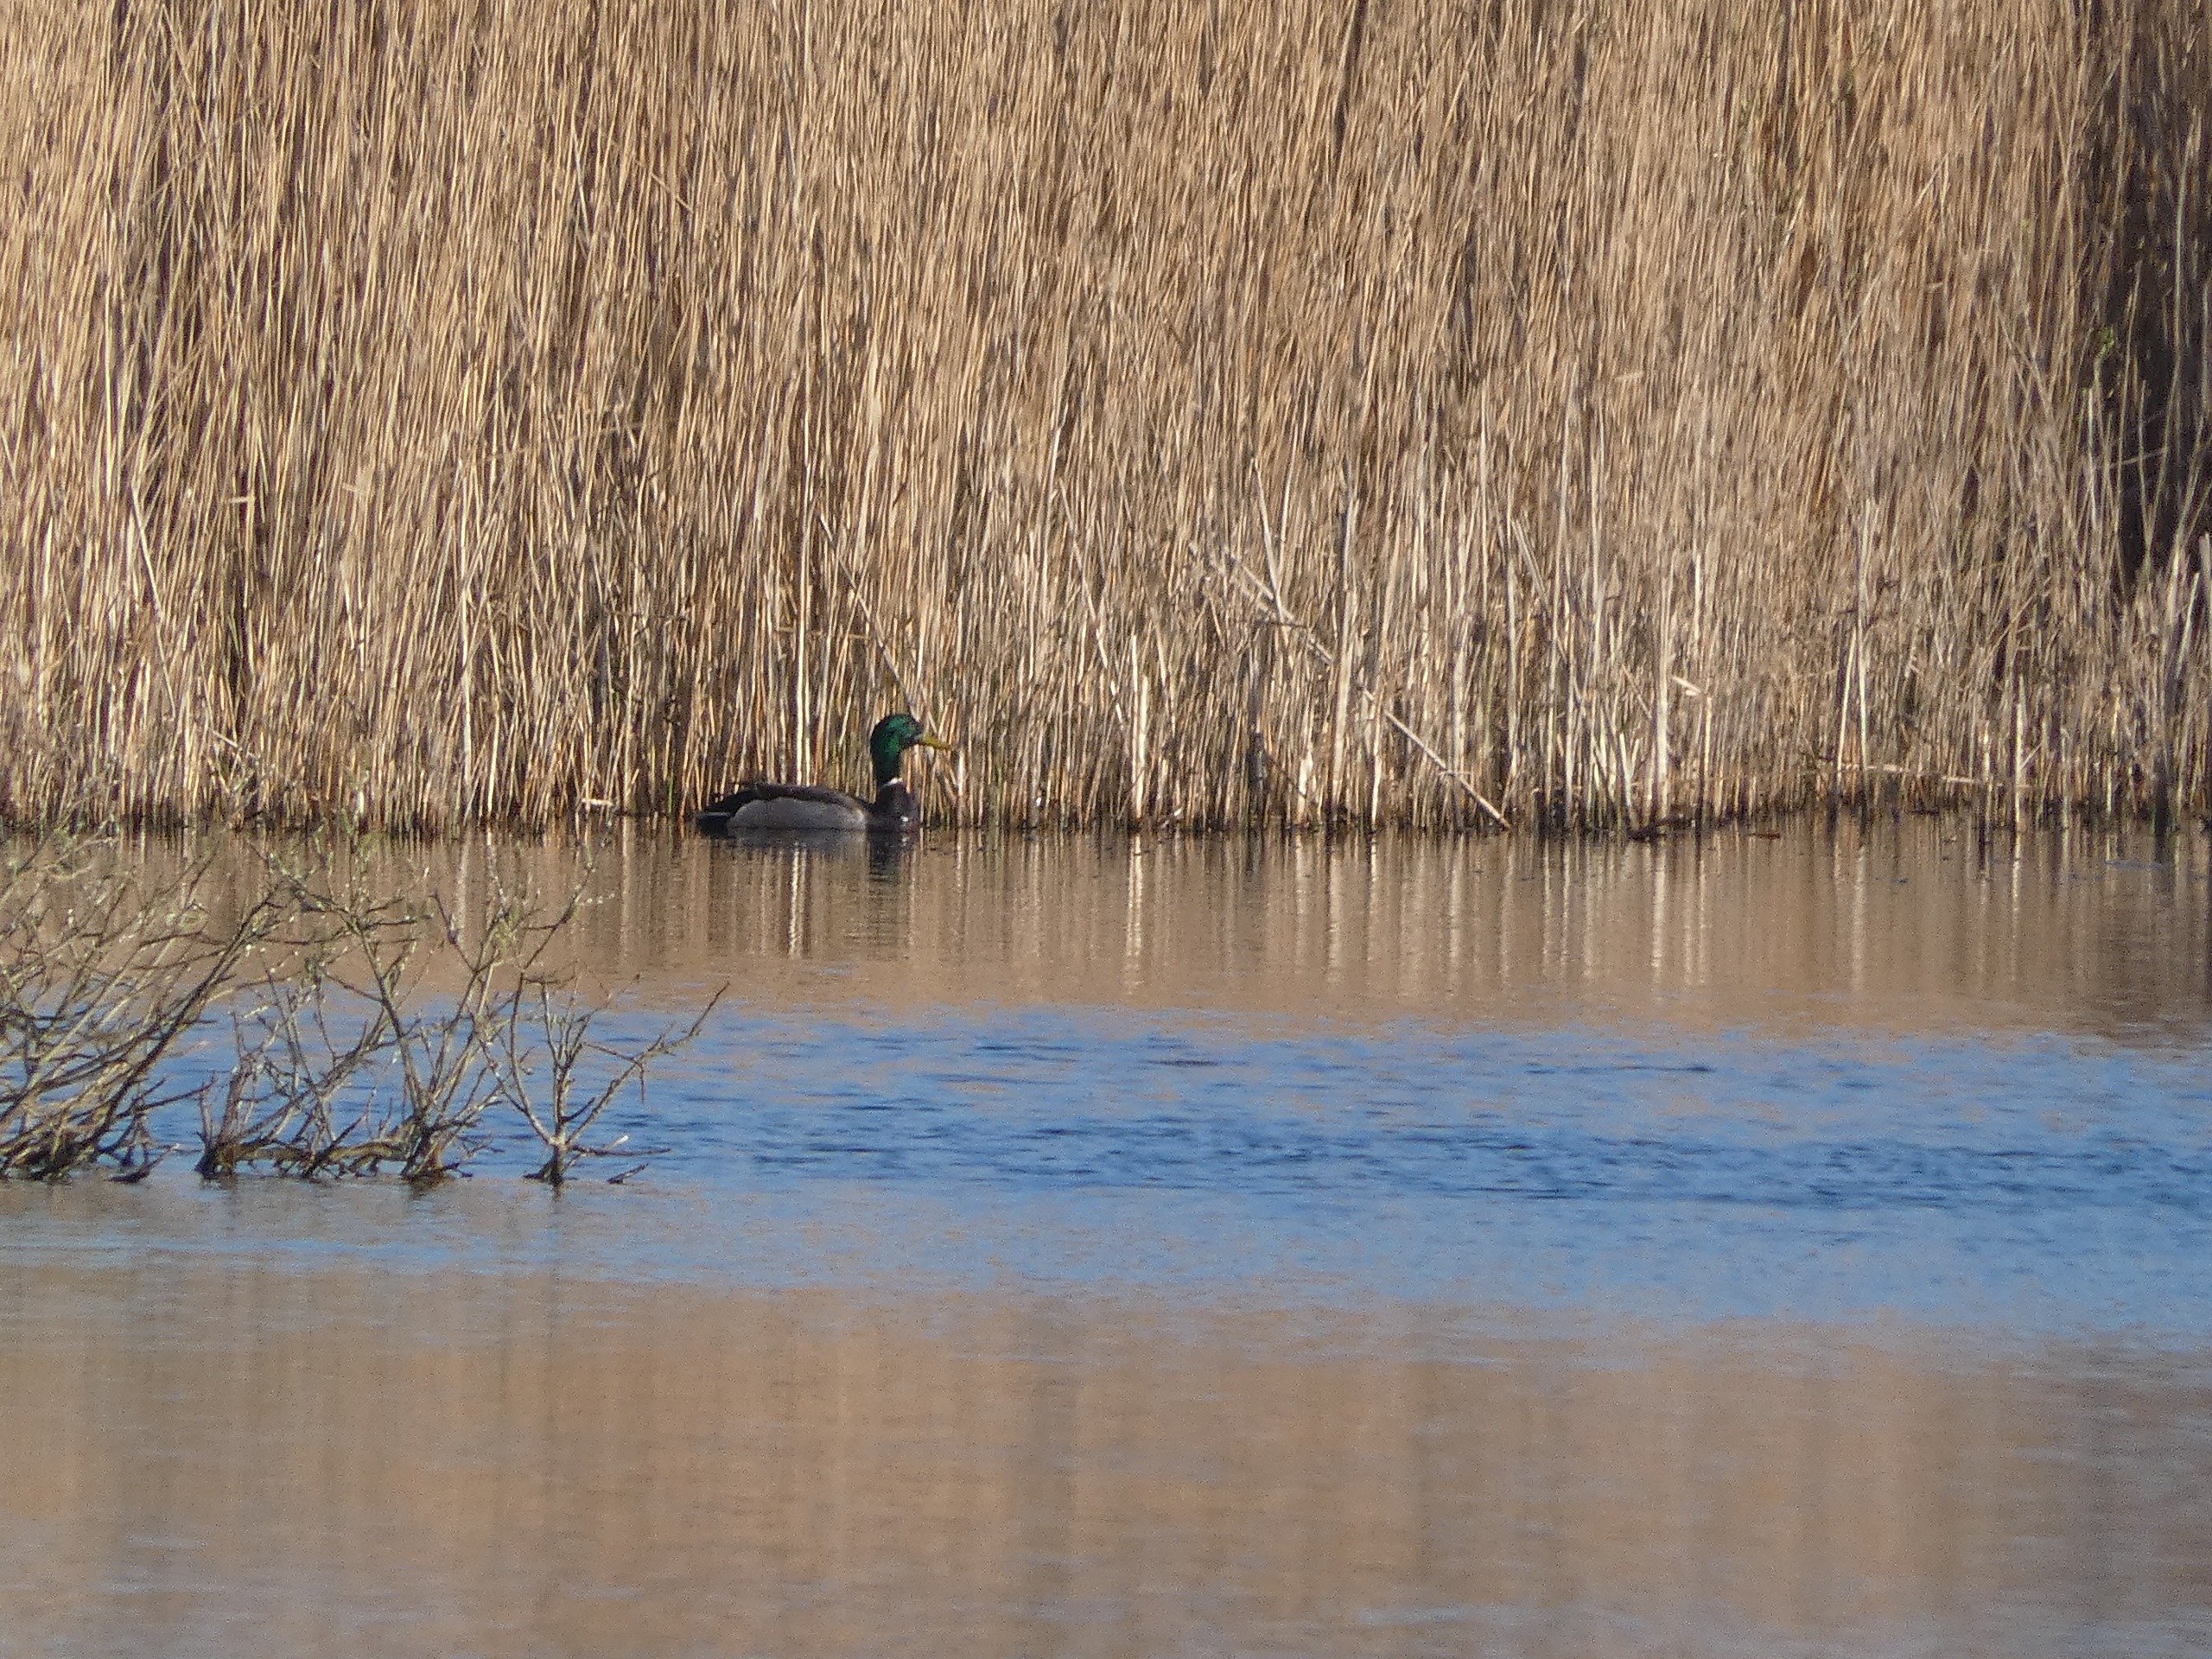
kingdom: Animalia
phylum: Chordata
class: Aves
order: Anseriformes
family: Anatidae
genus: Anas
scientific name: Anas platyrhynchos
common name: Gråand
